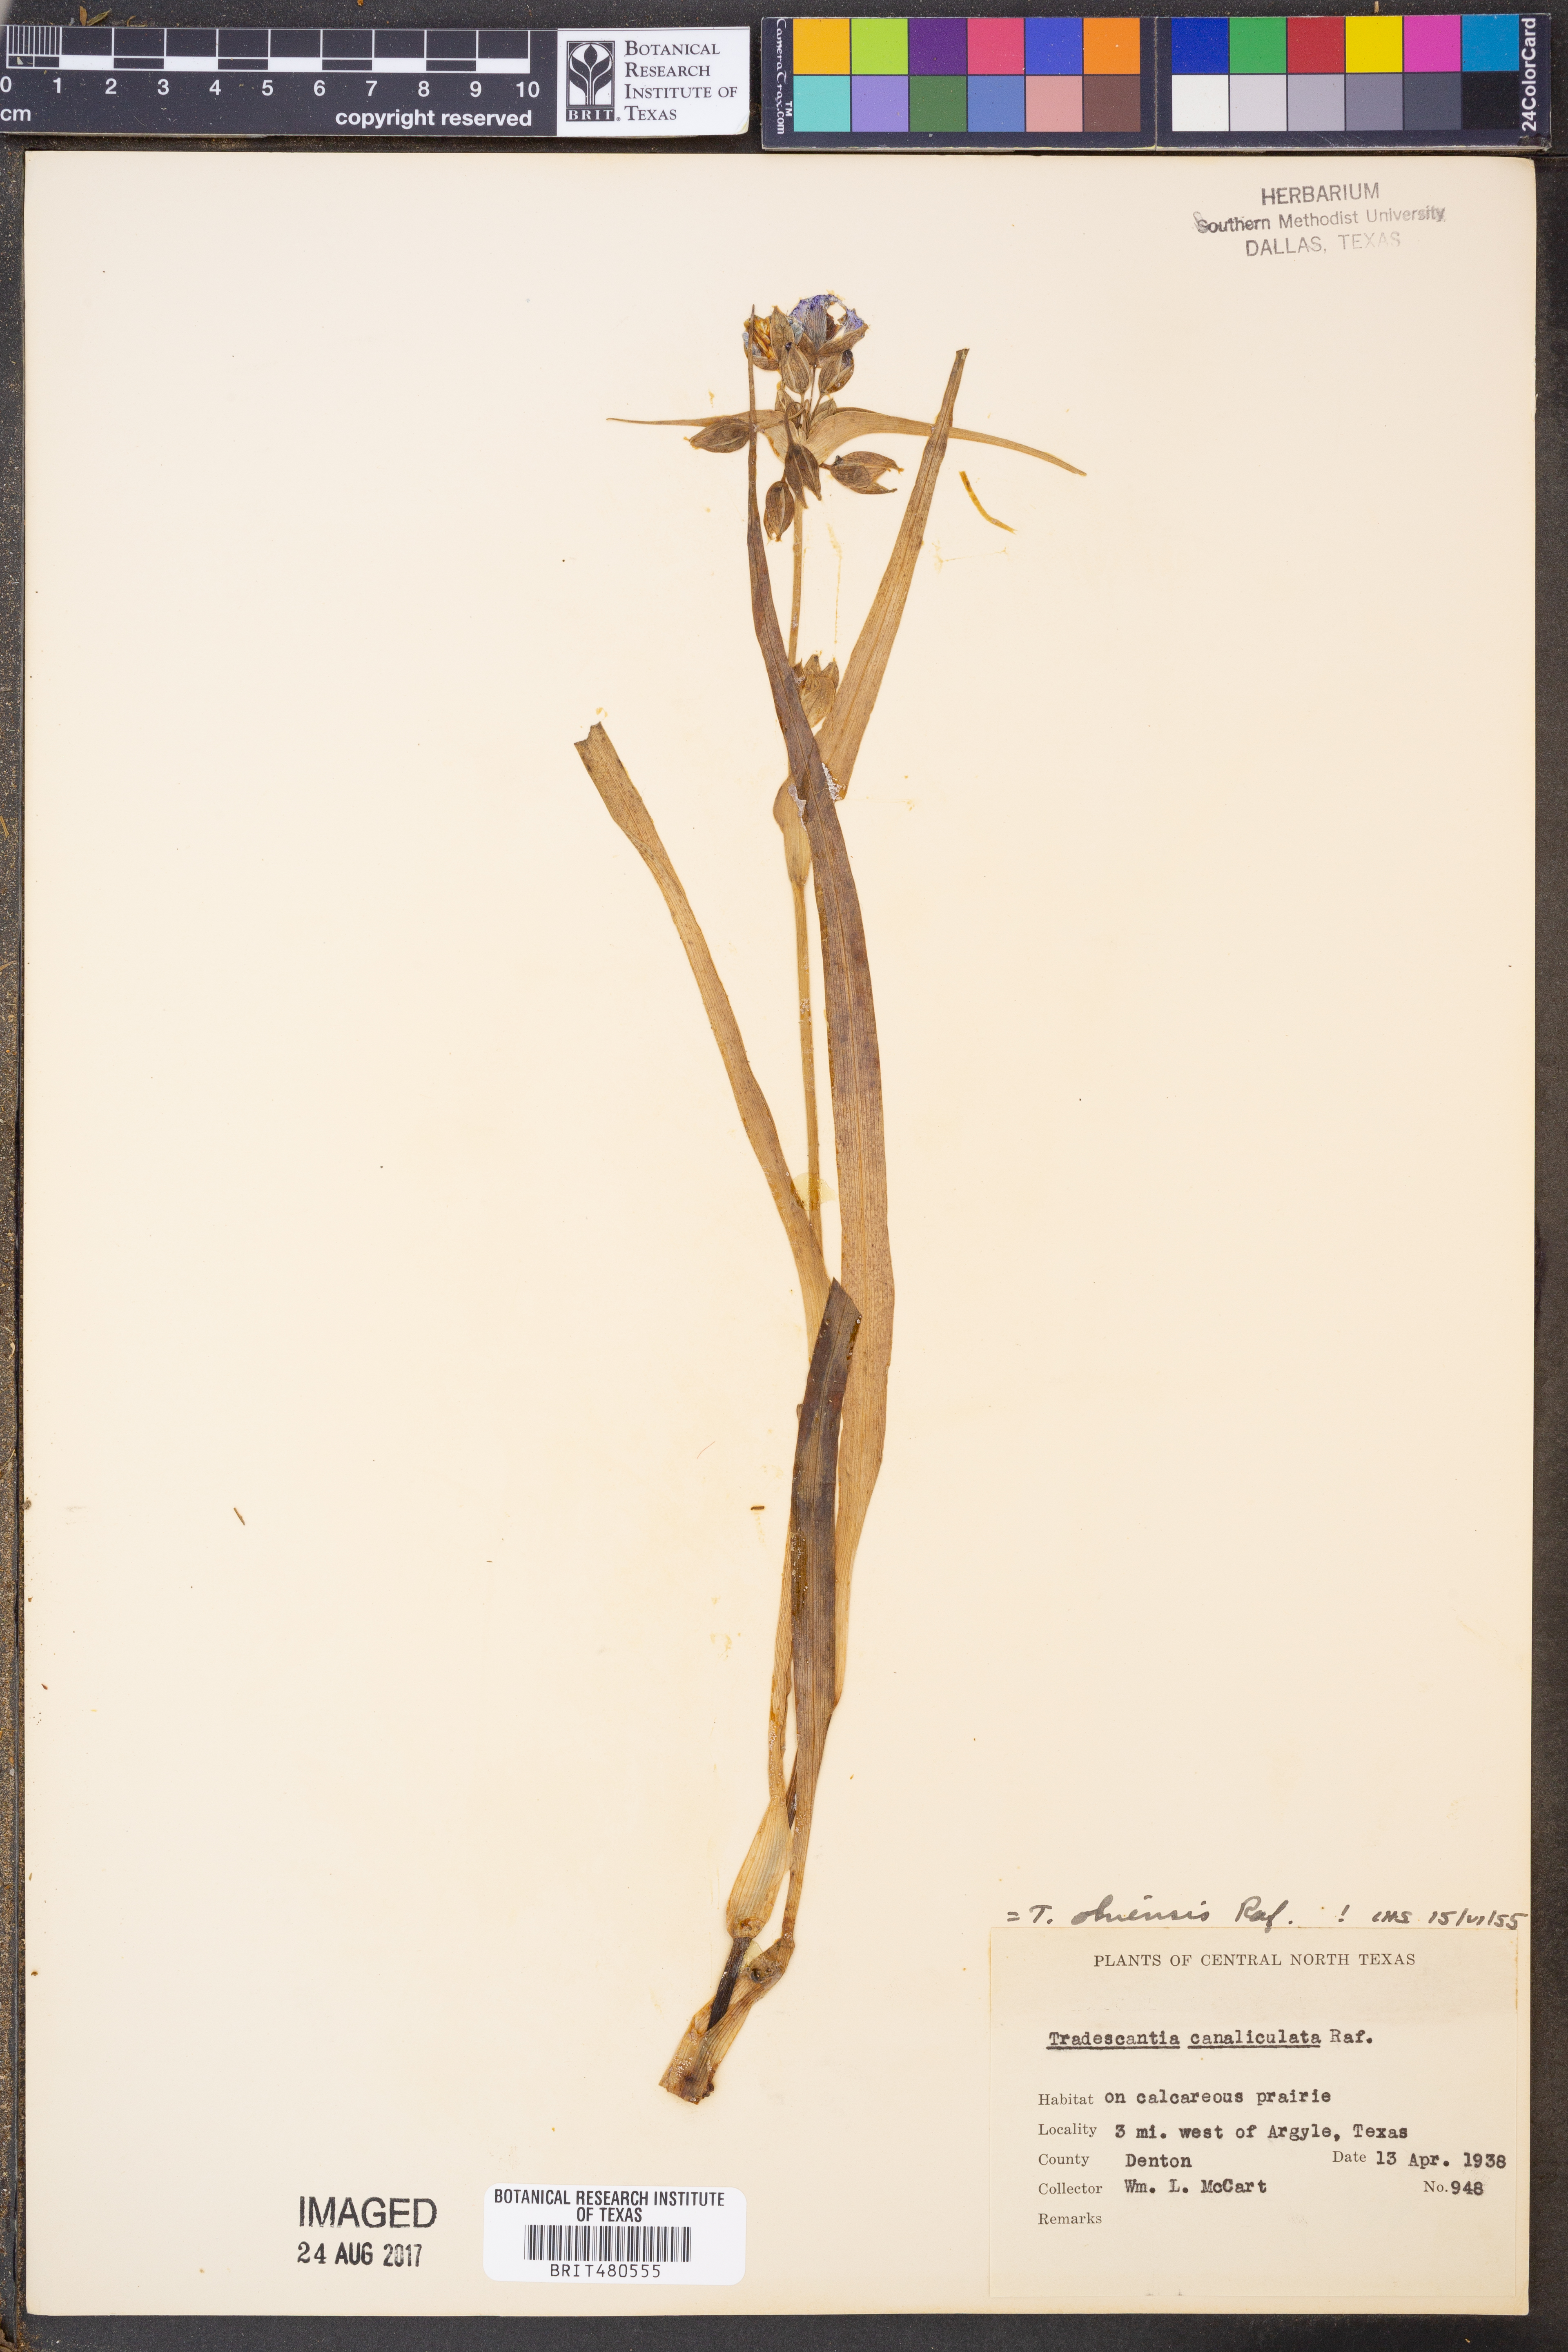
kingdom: Plantae
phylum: Tracheophyta
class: Liliopsida
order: Commelinales
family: Commelinaceae
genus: Tradescantia
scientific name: Tradescantia ohiensis
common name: Ohio spiderwort
